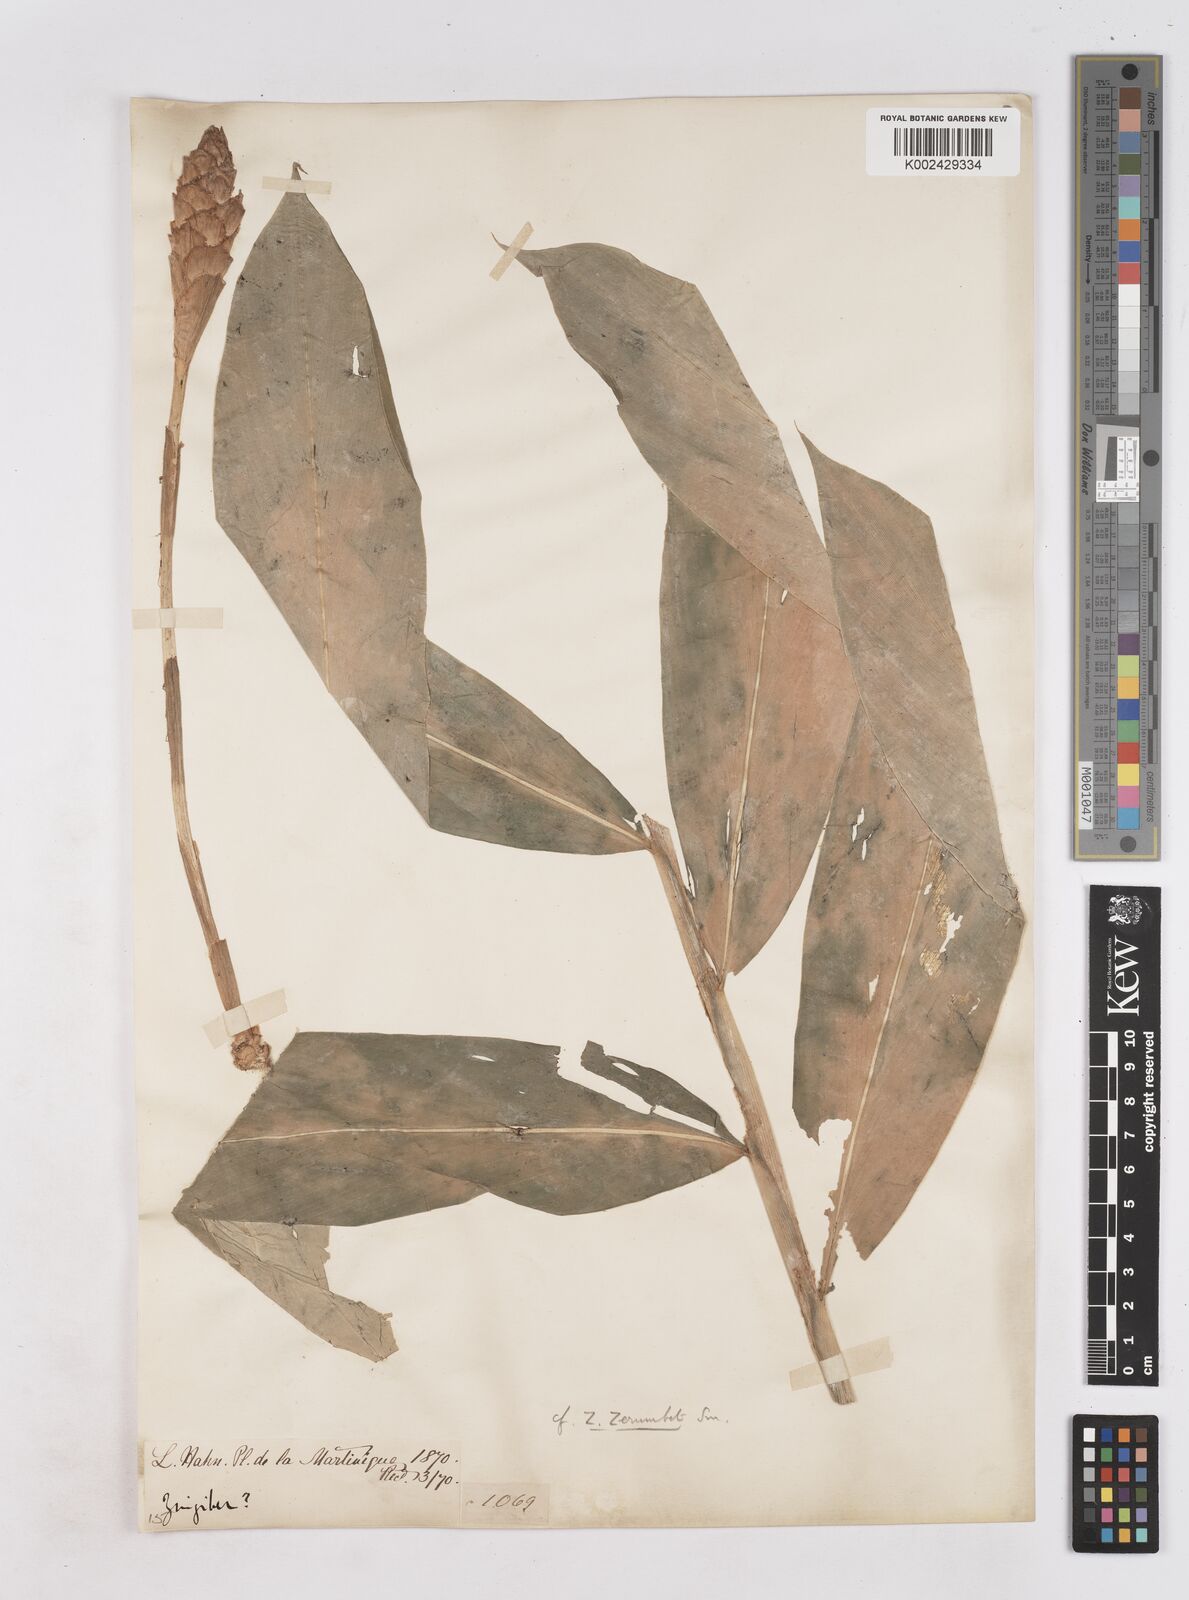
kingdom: Plantae
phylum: Tracheophyta
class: Liliopsida
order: Zingiberales
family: Zingiberaceae
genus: Zingiber
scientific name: Zingiber zerumbet
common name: Bitter ginger
